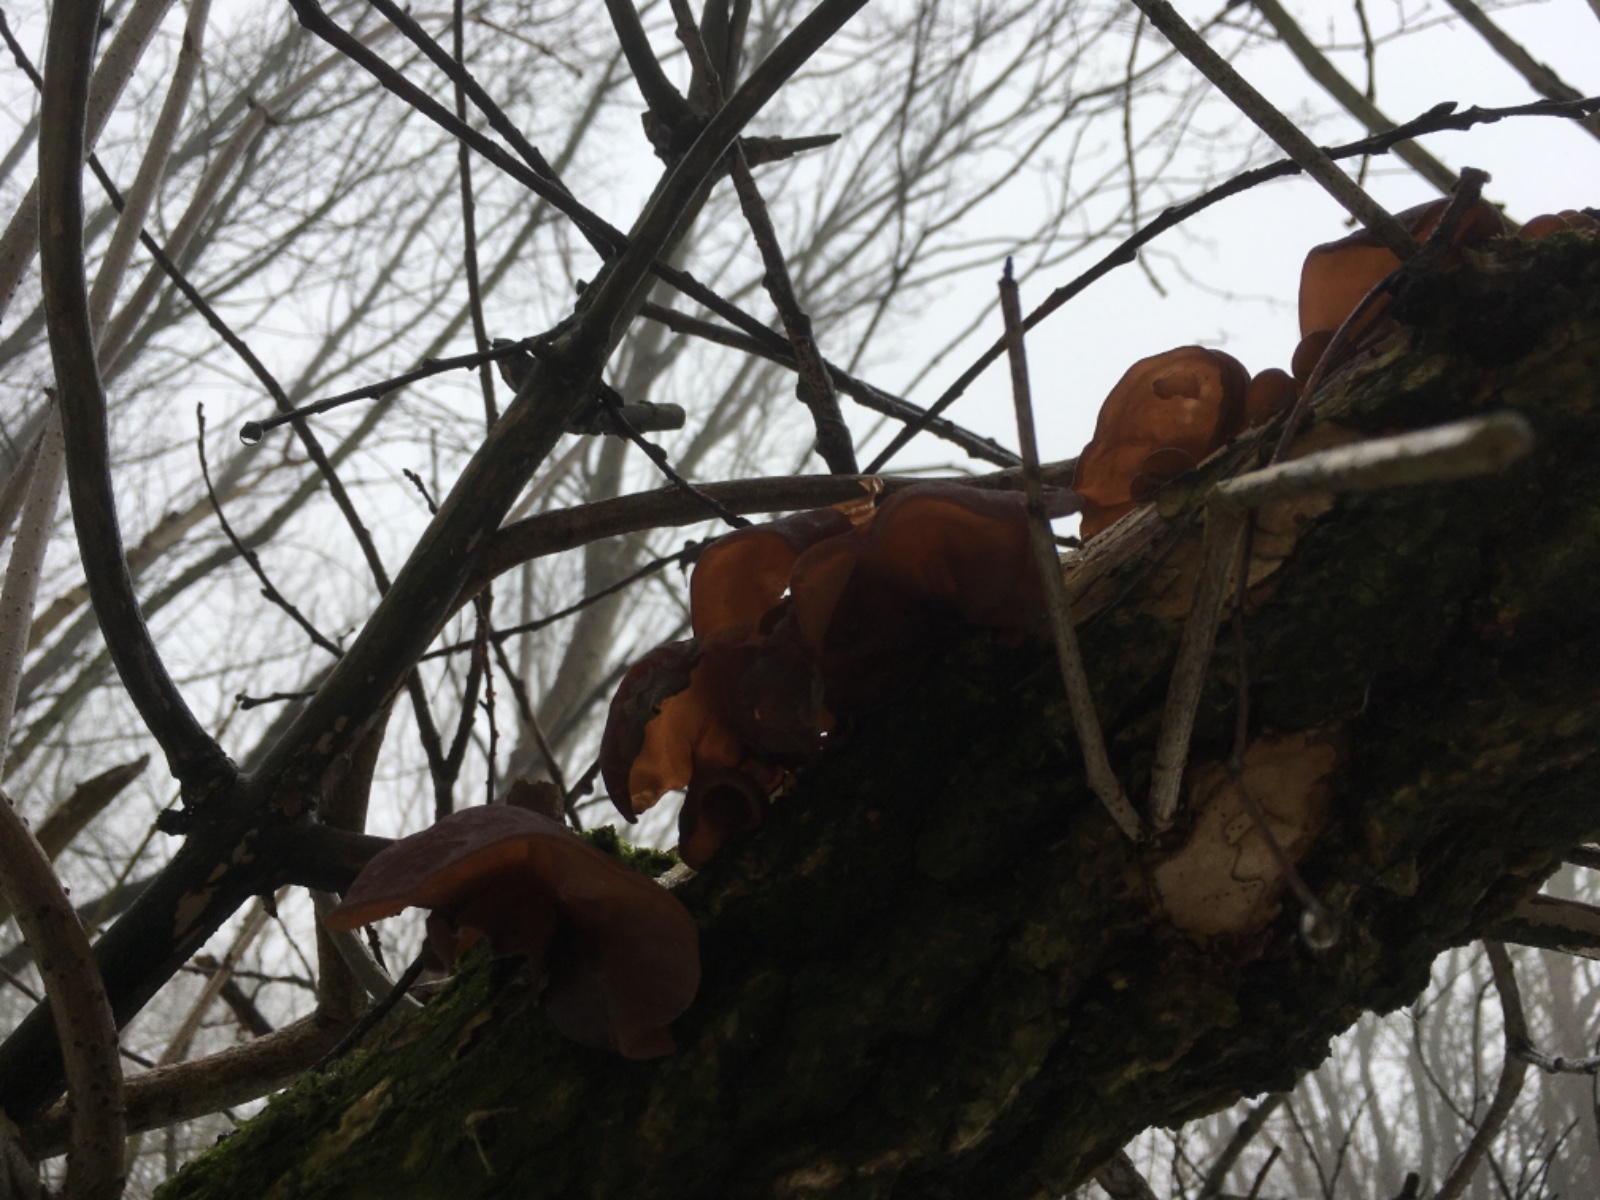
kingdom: Fungi
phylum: Basidiomycota
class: Agaricomycetes
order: Auriculariales
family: Auriculariaceae
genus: Auricularia
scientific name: Auricularia auricula-judae
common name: almindelig judasøre
